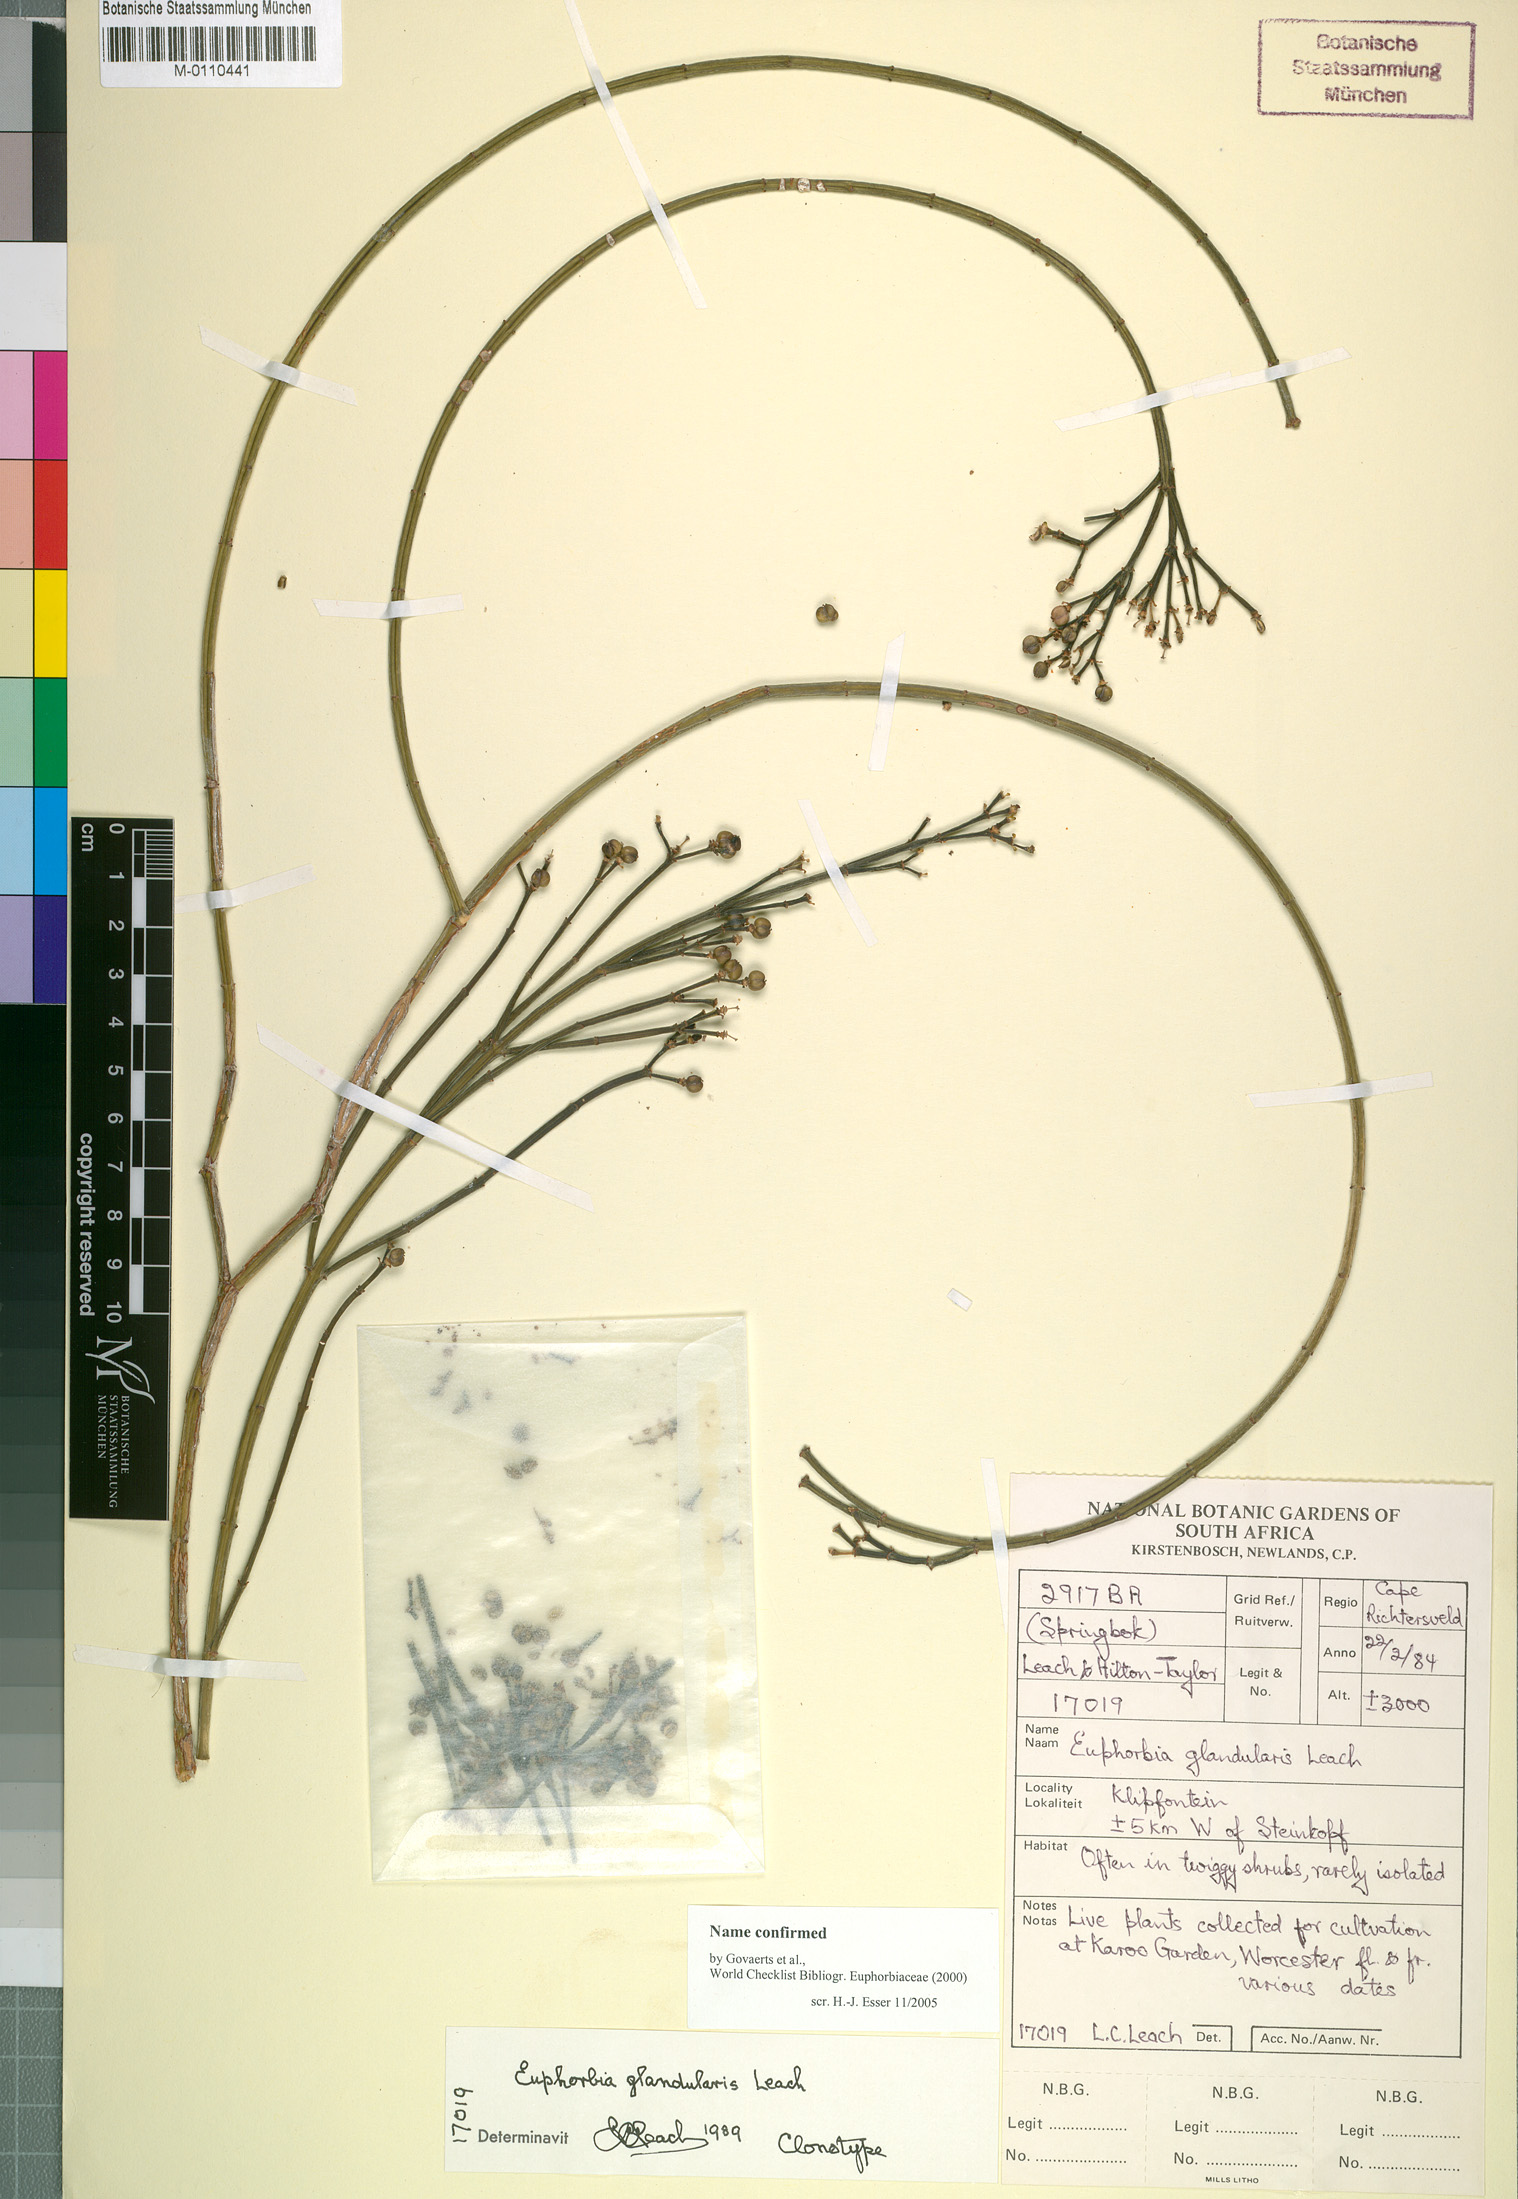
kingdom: Plantae
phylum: Tracheophyta
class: Magnoliopsida
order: Malpighiales
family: Euphorbiaceae
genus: Euphorbia
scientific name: Euphorbia exilis
